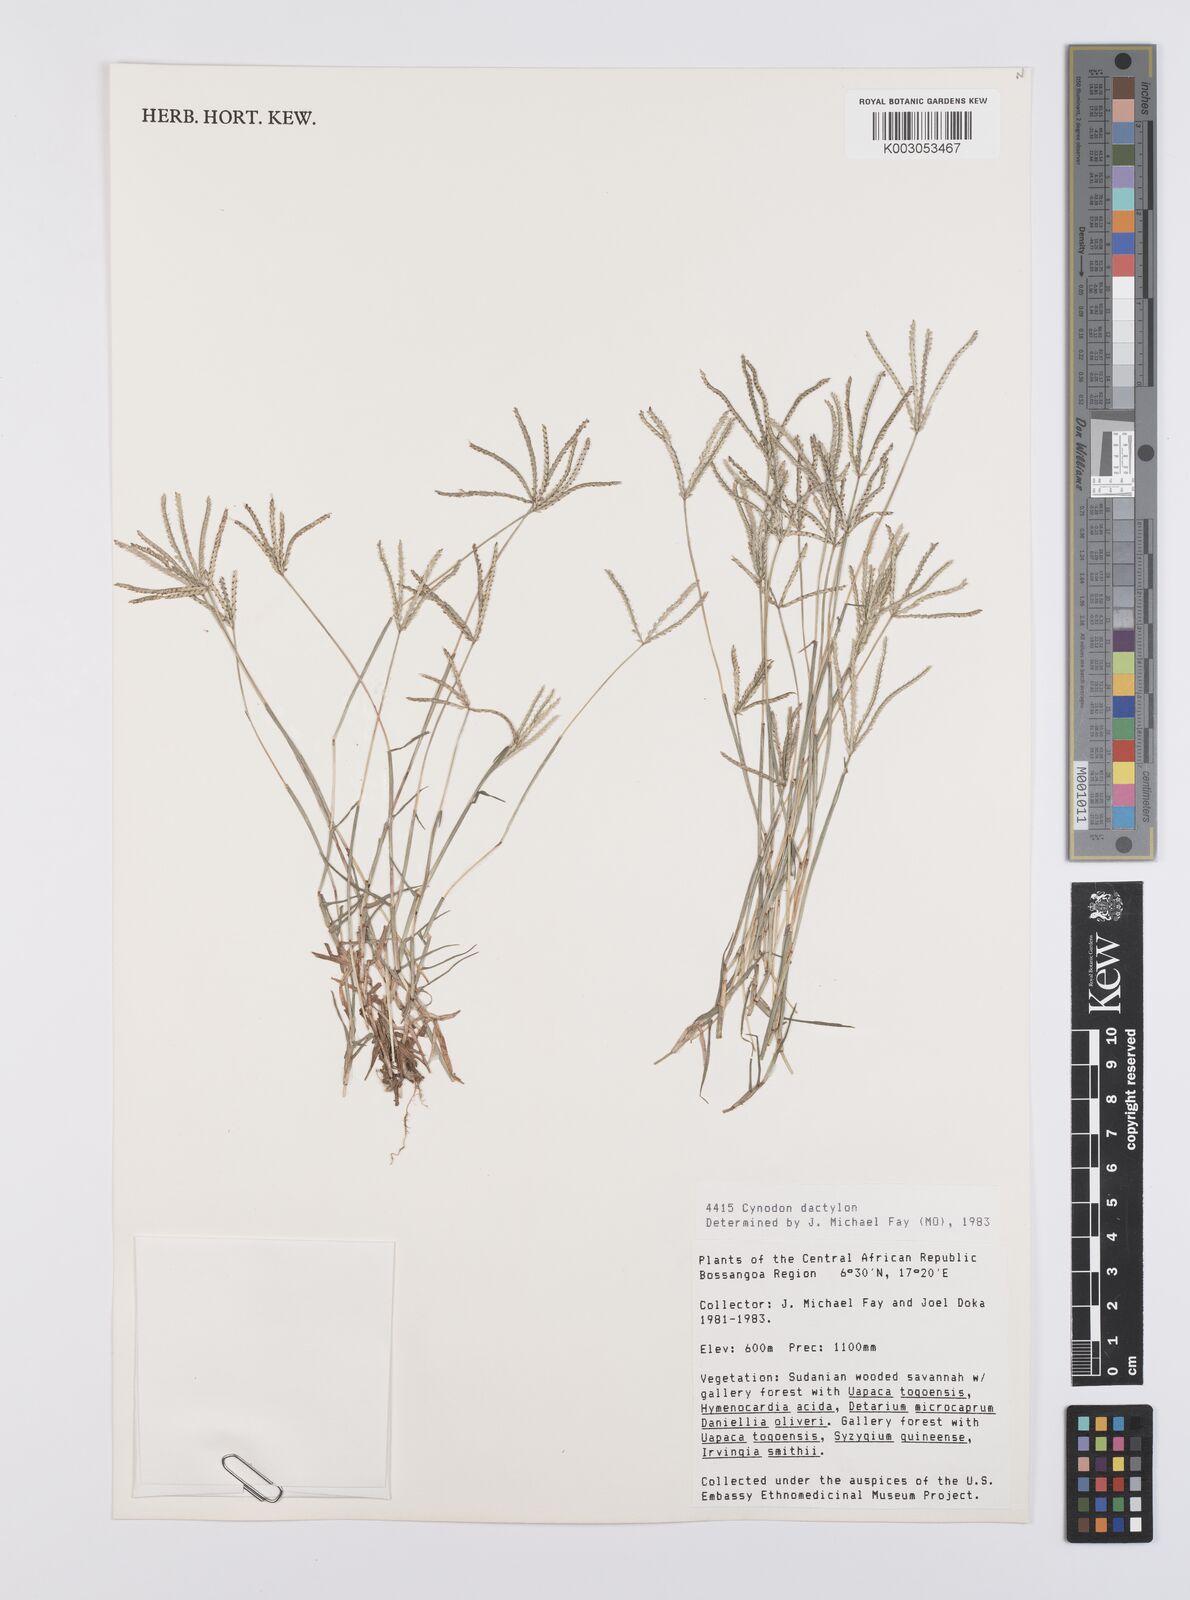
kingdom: Plantae
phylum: Tracheophyta
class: Liliopsida
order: Poales
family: Poaceae
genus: Cynodon
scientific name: Cynodon dactylon
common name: Bermuda grass
